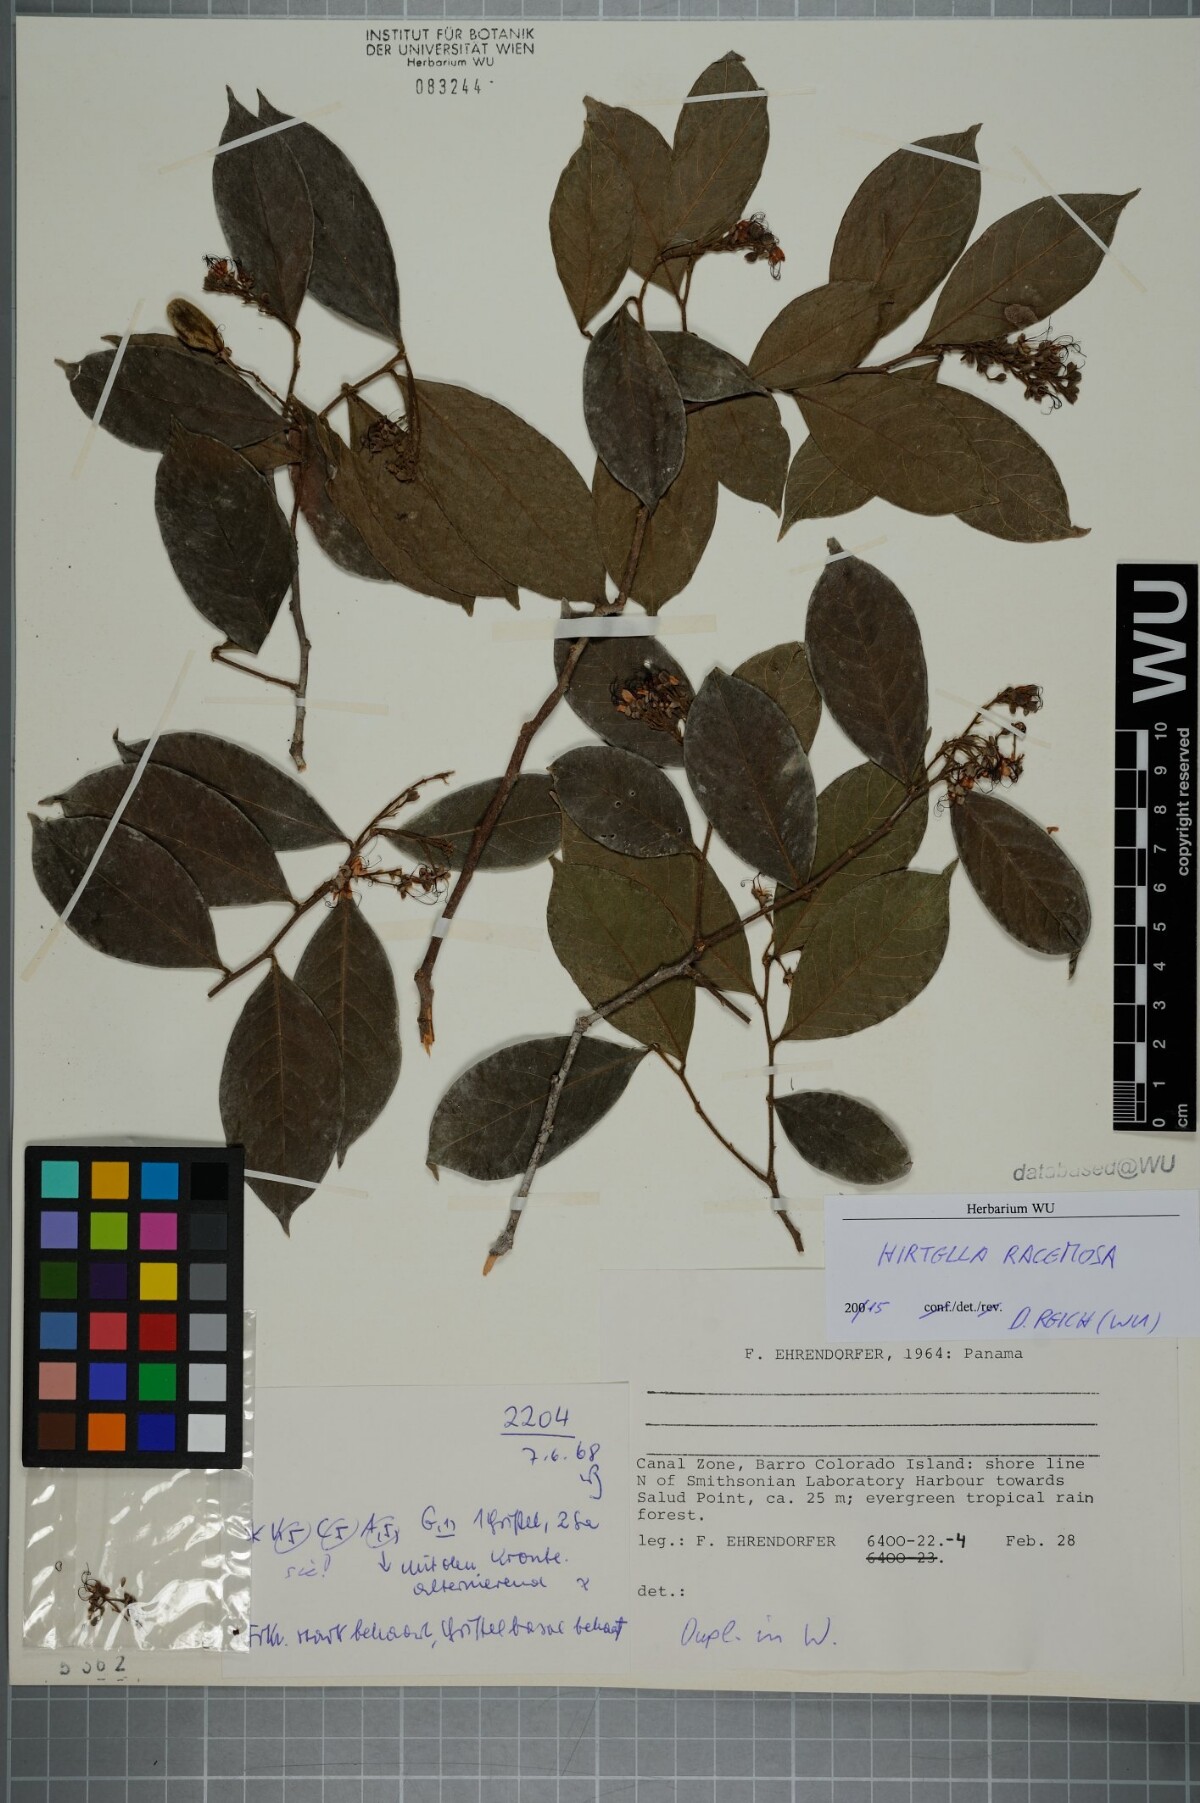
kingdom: Plantae
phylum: Tracheophyta
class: Magnoliopsida
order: Malpighiales
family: Chrysobalanaceae
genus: Hirtella
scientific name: Hirtella racemosa
